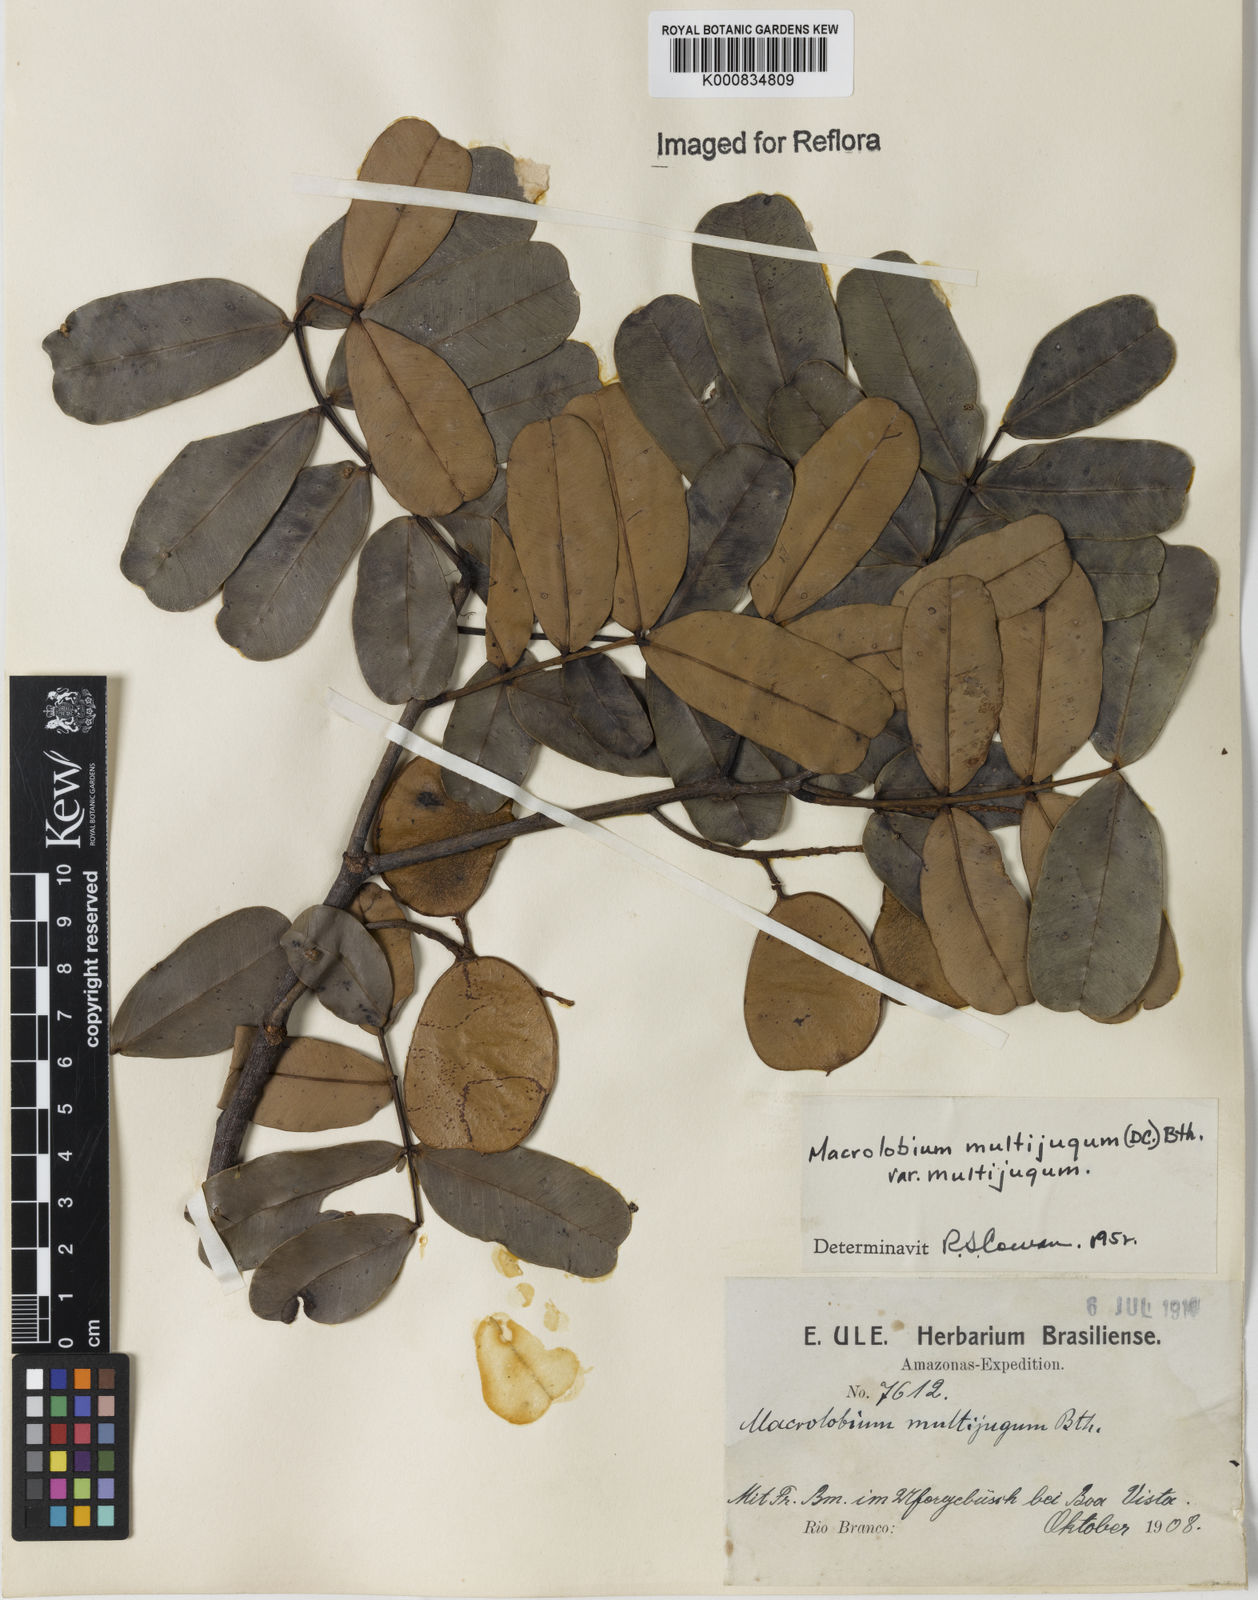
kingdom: Plantae
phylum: Tracheophyta
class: Magnoliopsida
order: Fabales
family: Fabaceae
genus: Macrolobium
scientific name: Macrolobium multijugum
